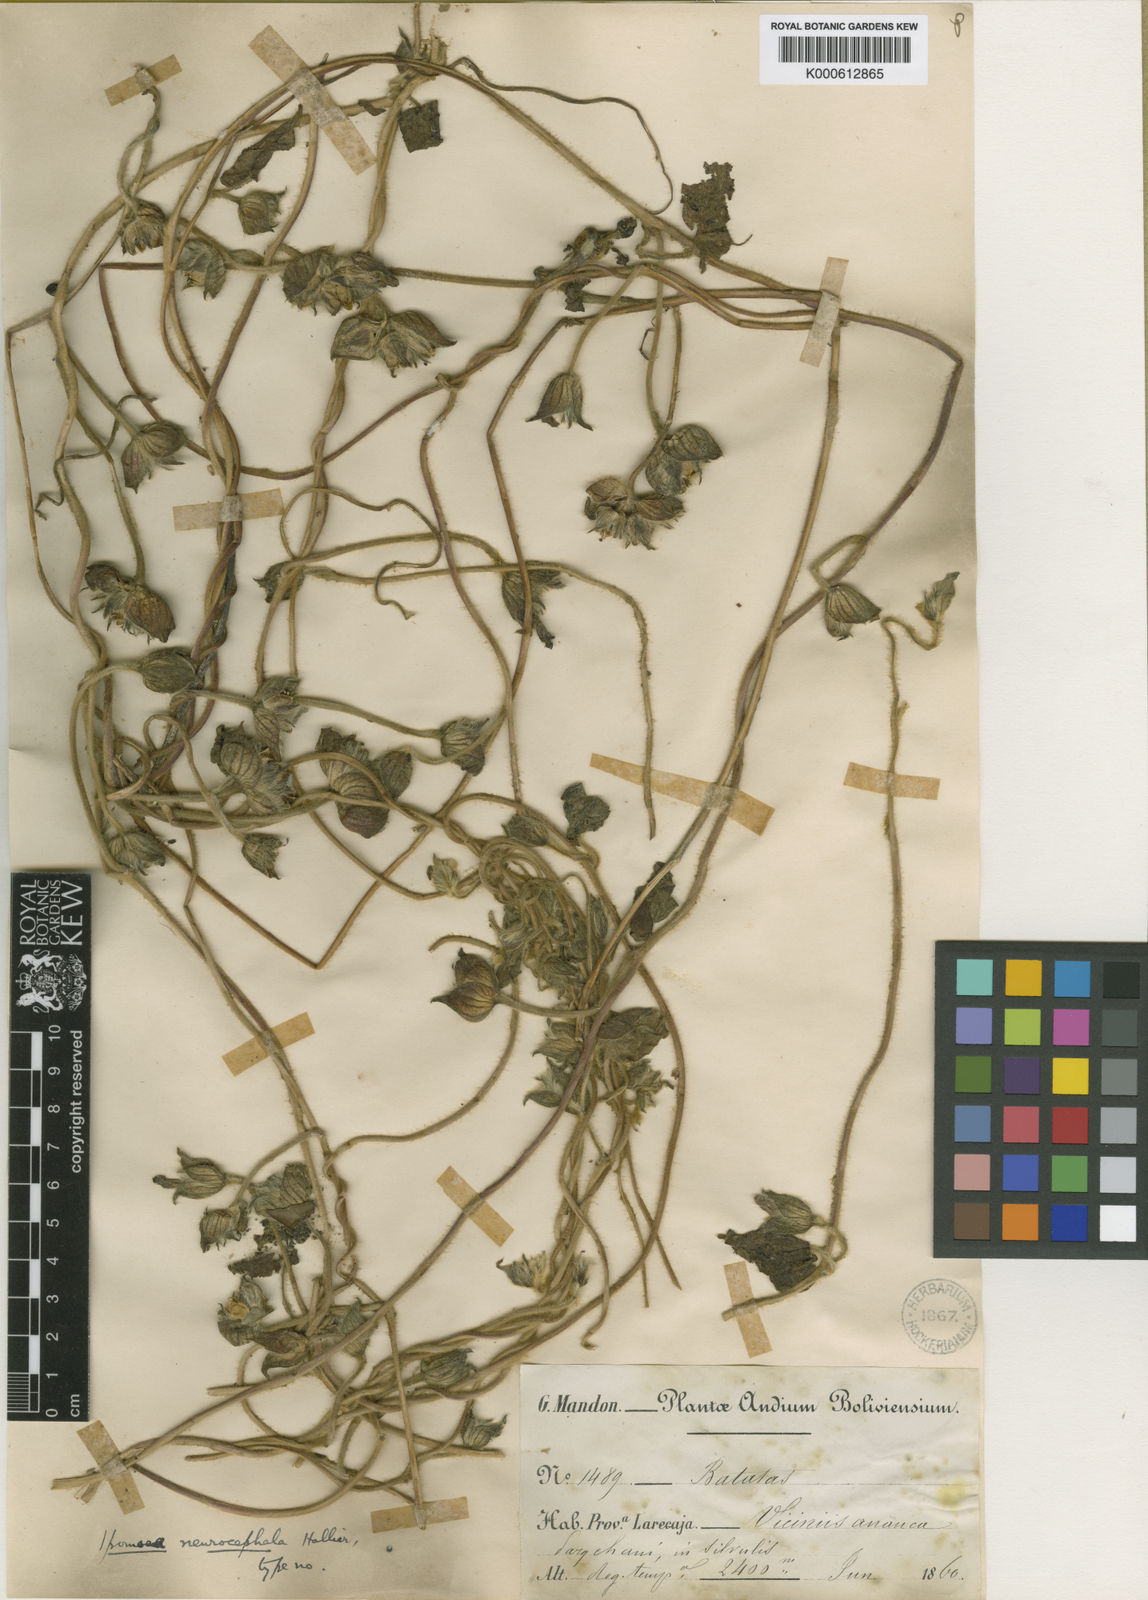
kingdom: Plantae
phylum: Tracheophyta
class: Magnoliopsida
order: Solanales
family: Convolvulaceae
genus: Ipomoea
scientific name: Ipomoea neurocephala
